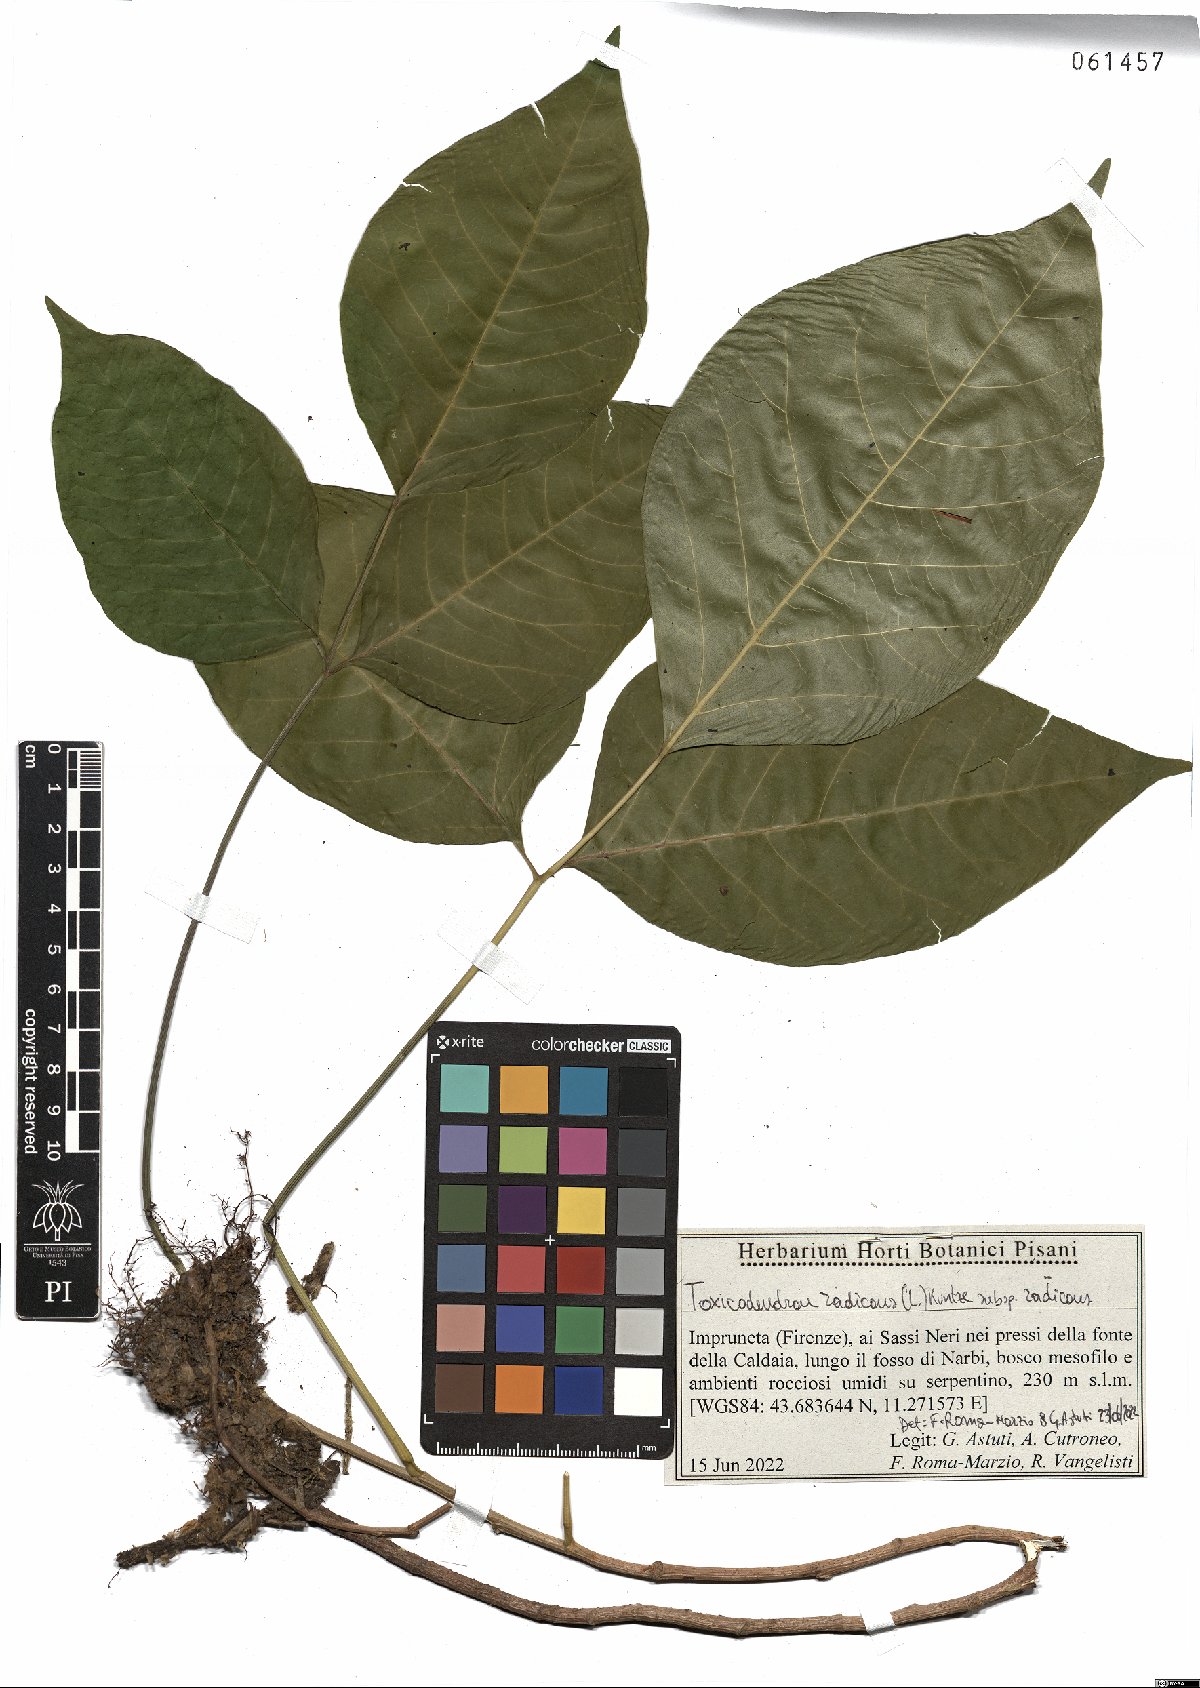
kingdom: Plantae
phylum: Tracheophyta
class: Magnoliopsida
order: Sapindales
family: Anacardiaceae
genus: Toxicodendron
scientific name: Toxicodendron radicans
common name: Poison ivy
